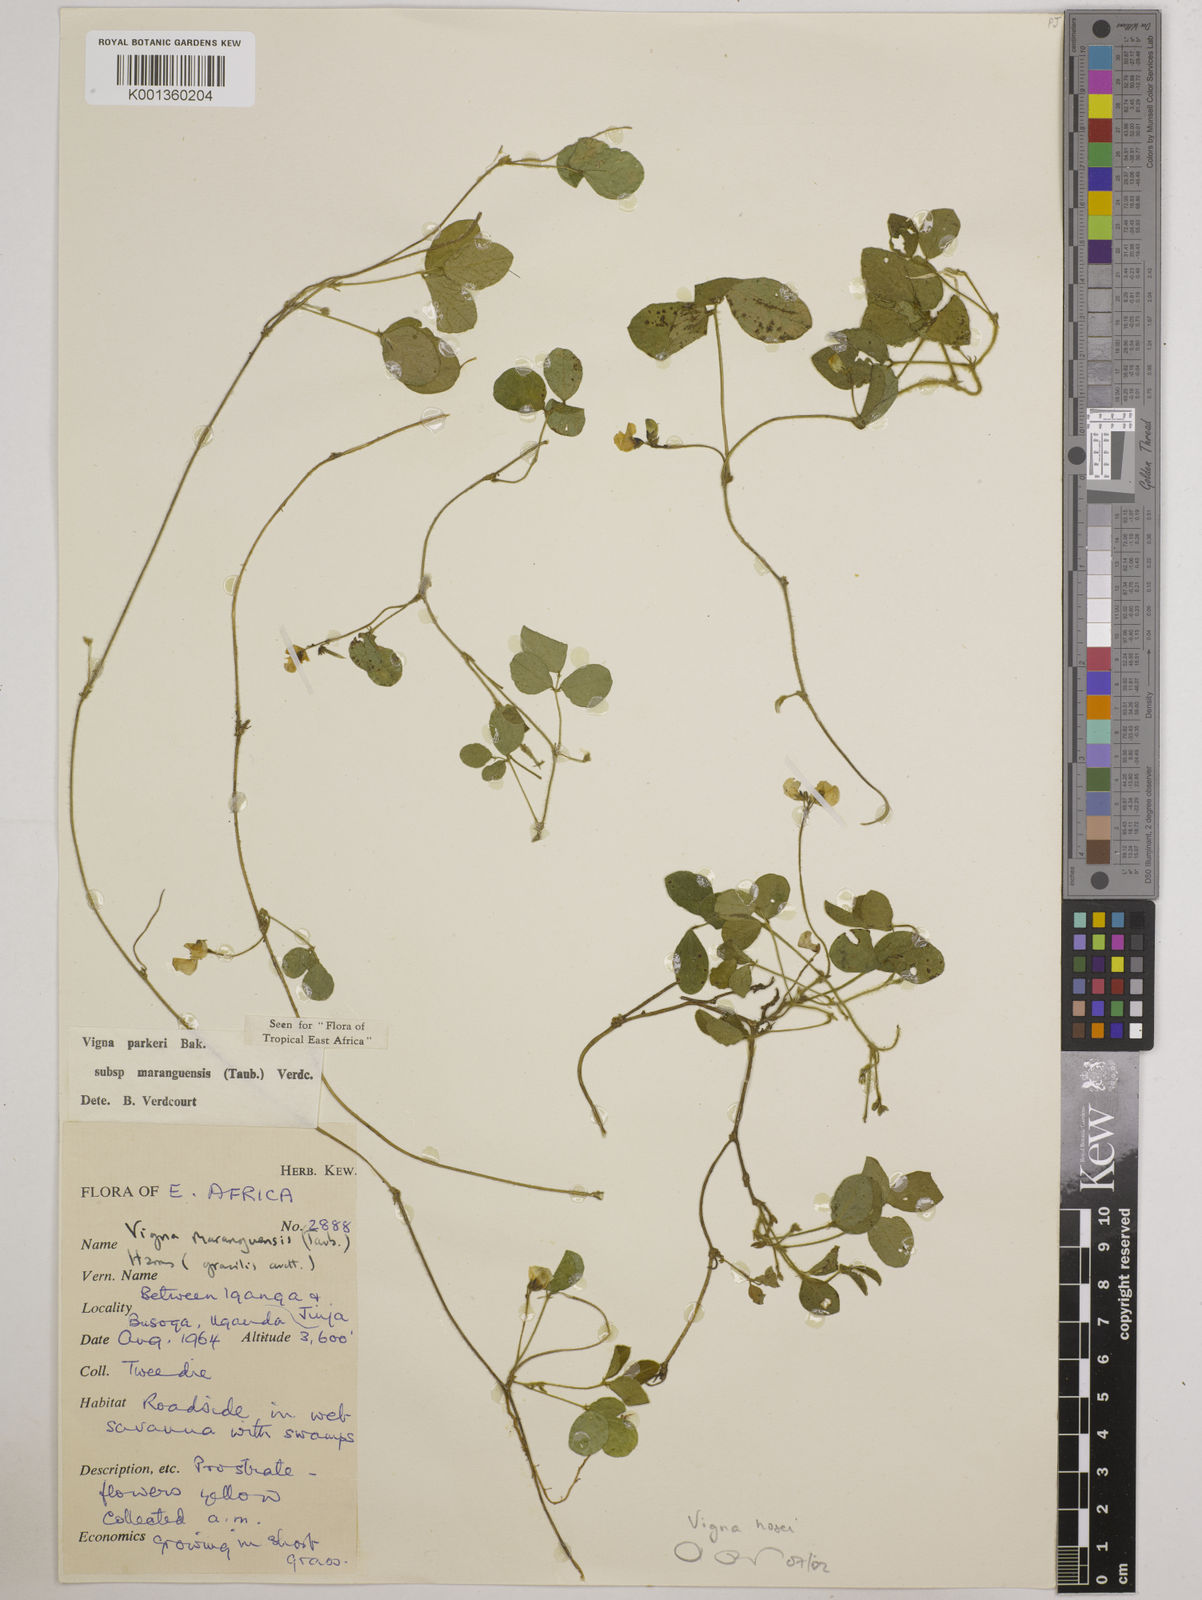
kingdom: Plantae
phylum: Tracheophyta
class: Magnoliopsida
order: Fabales
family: Fabaceae
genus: Vigna
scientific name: Vigna hosei
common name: Sarawak-bean
